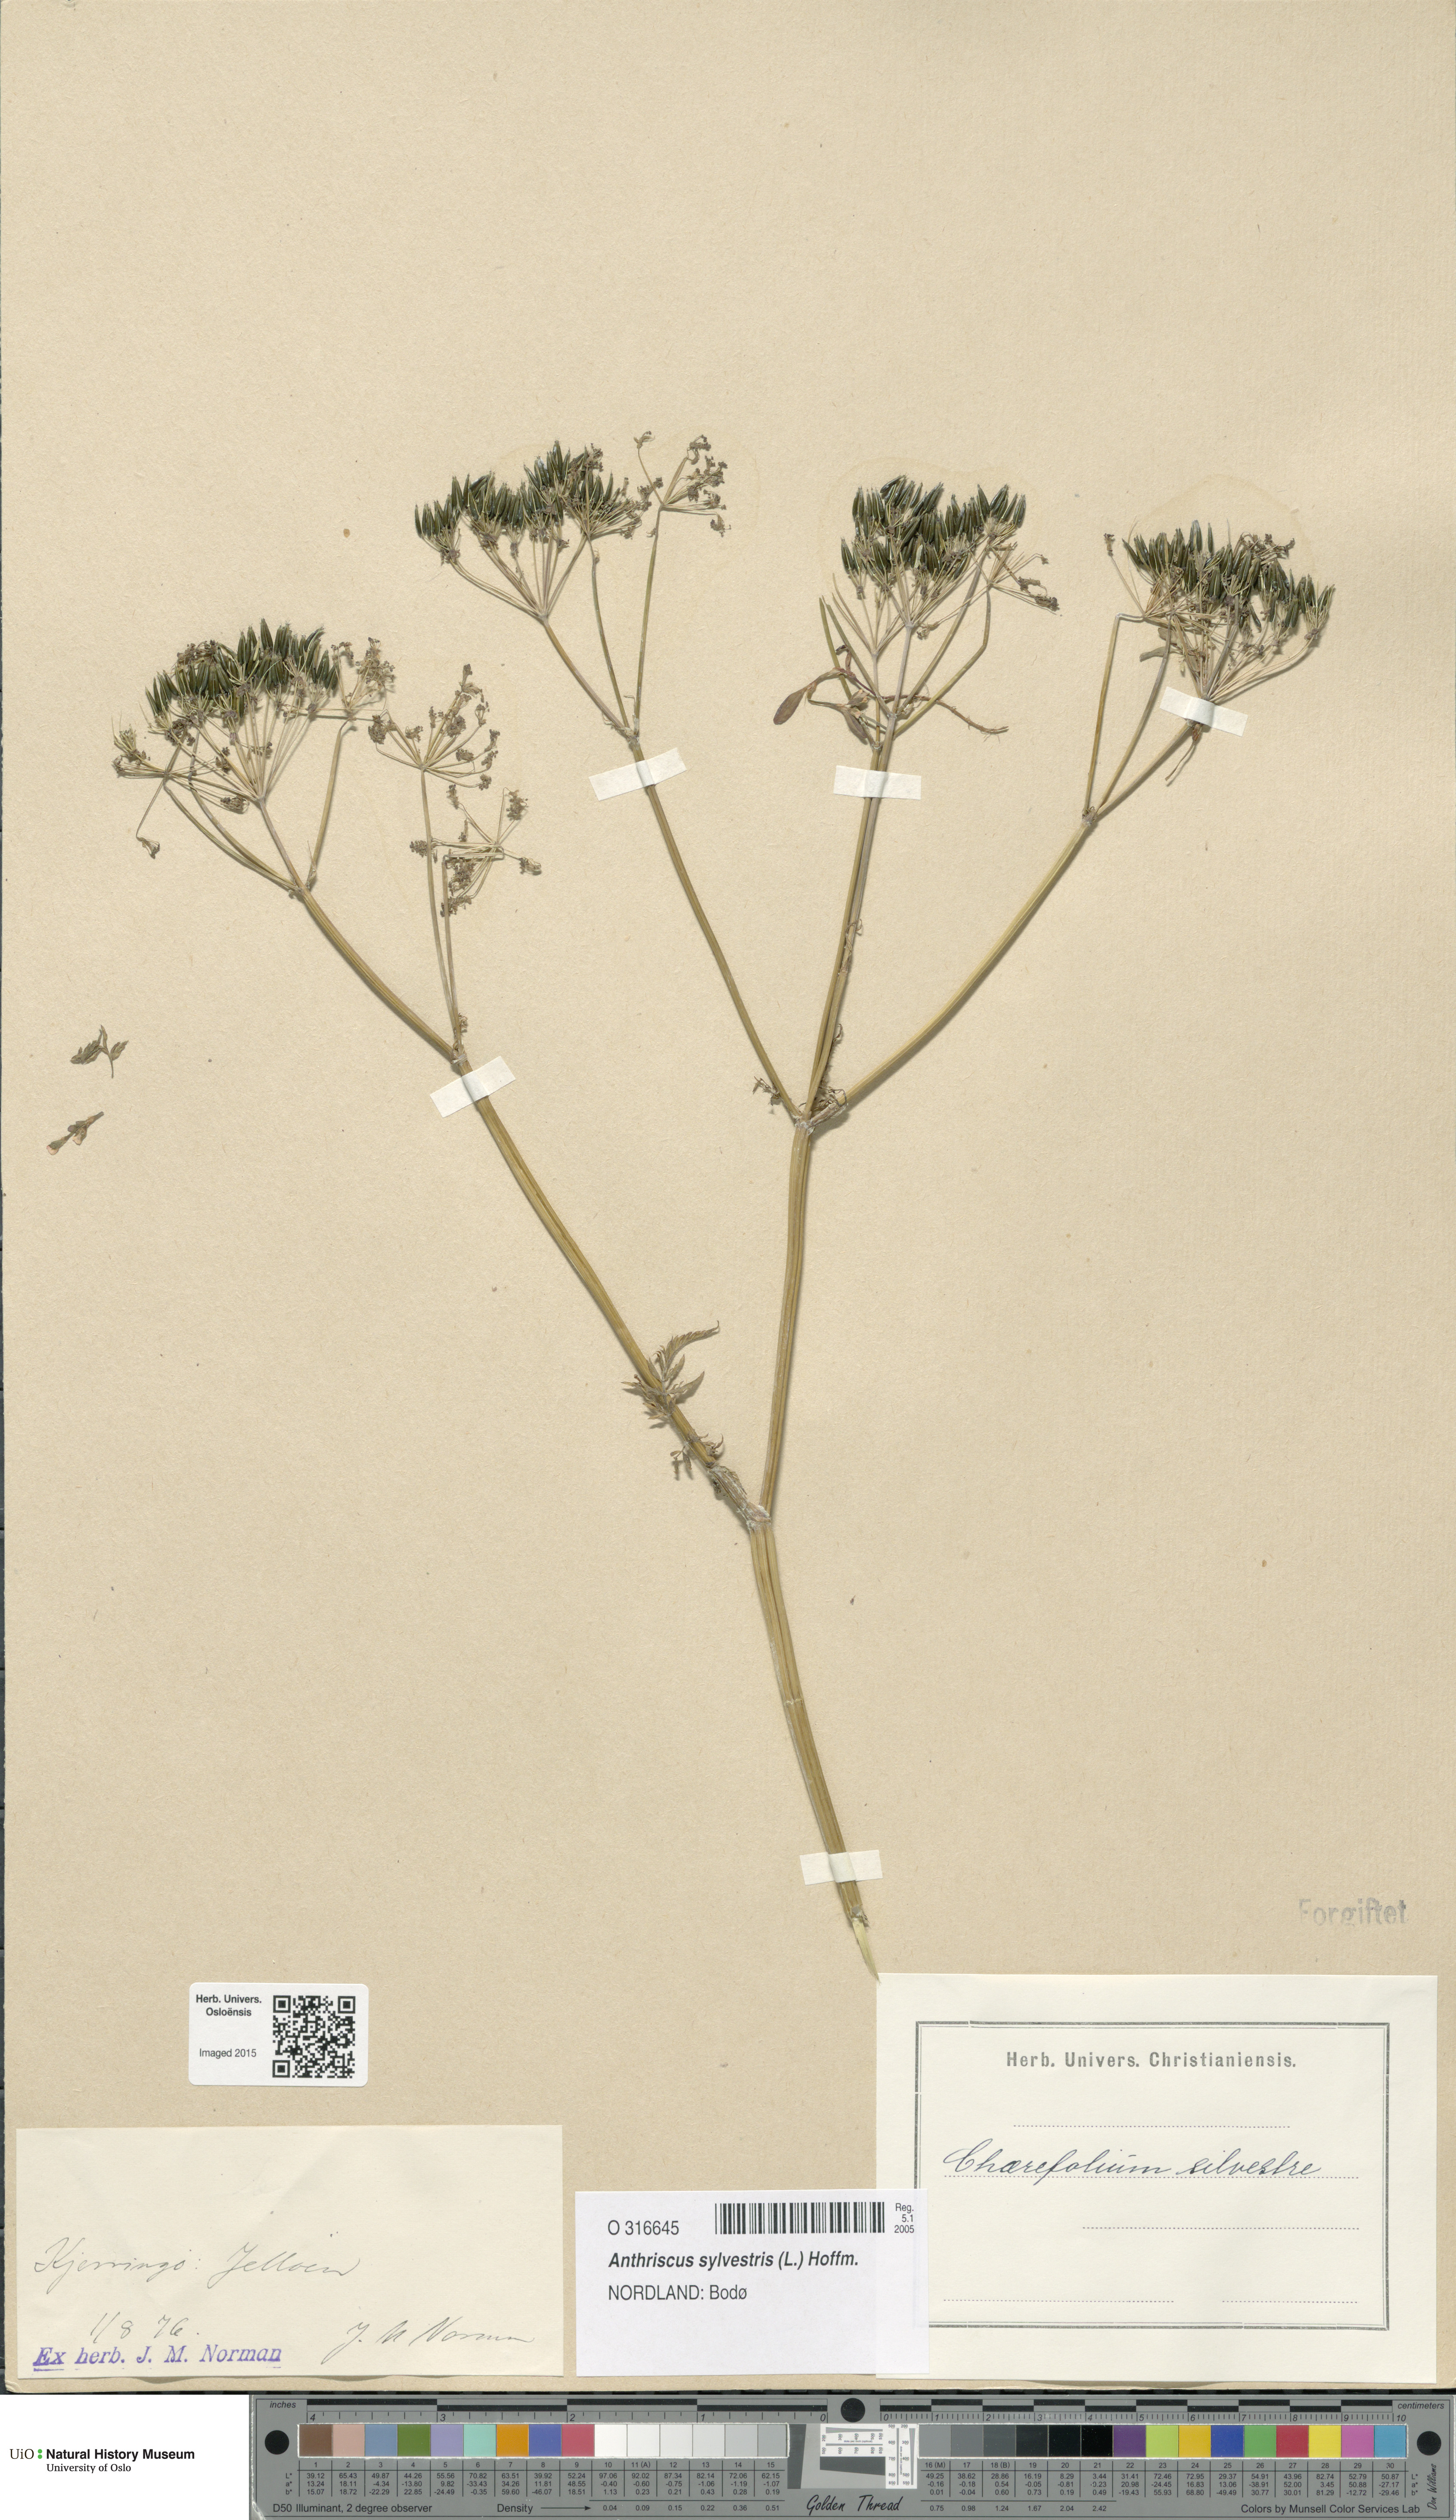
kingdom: Plantae
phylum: Tracheophyta
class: Magnoliopsida
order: Apiales
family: Apiaceae
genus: Anthriscus
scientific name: Anthriscus sylvestris
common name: Cow parsley
